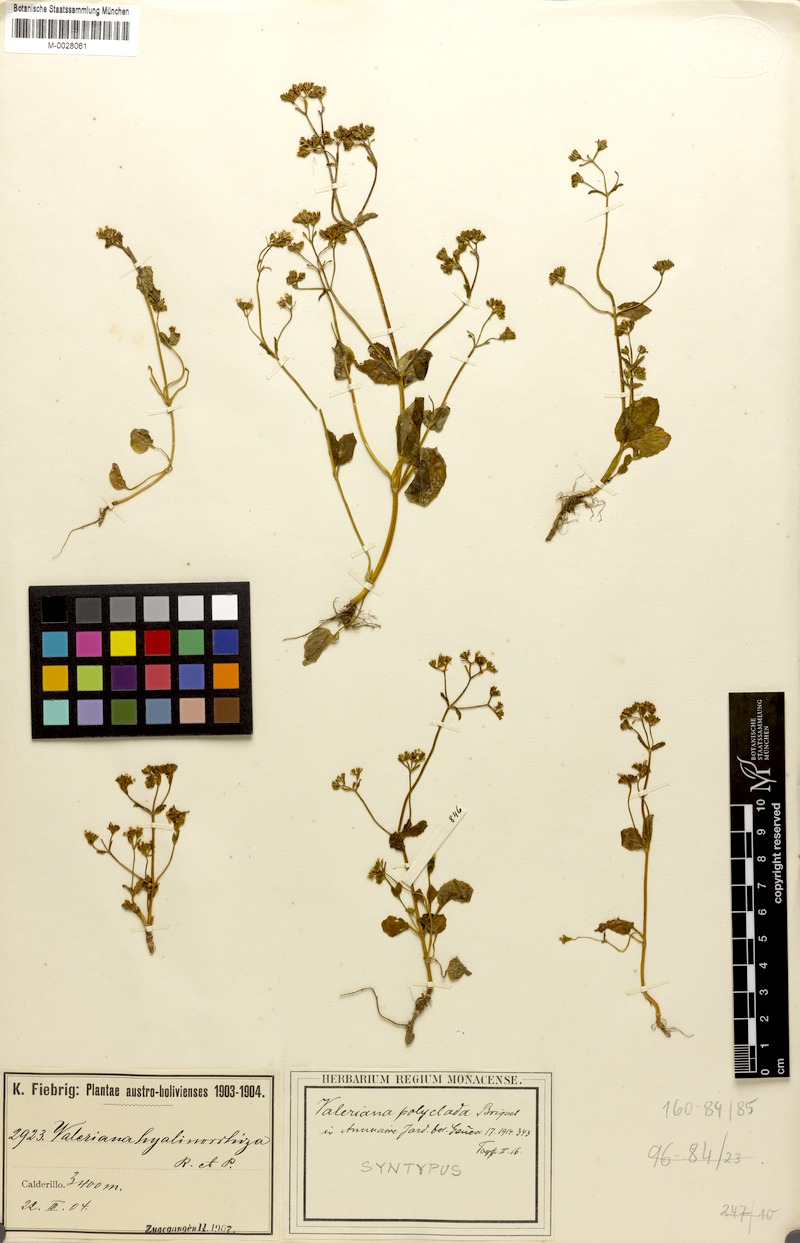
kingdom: Plantae
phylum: Tracheophyta
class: Magnoliopsida
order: Dipsacales
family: Caprifoliaceae
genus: Valeriana
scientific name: Valeriana hyalinorrhiza
